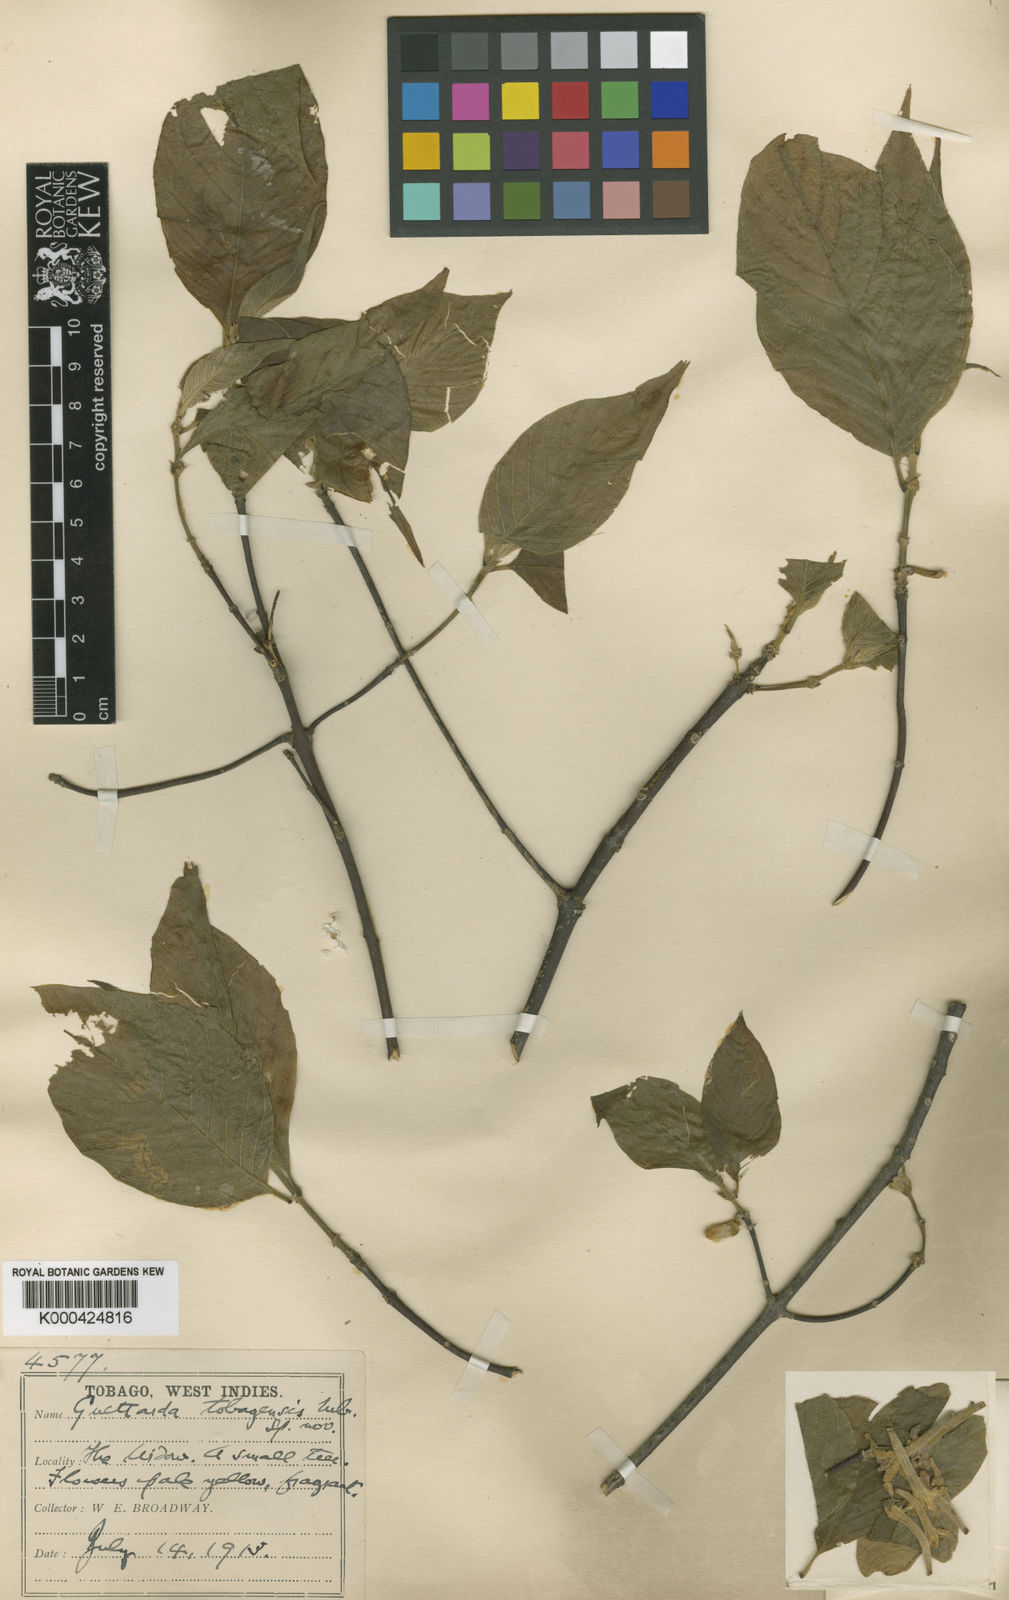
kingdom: Plantae
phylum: Tracheophyta
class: Magnoliopsida
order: Gentianales
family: Rubiaceae
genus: Guettarda
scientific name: Guettarda tobagensis
